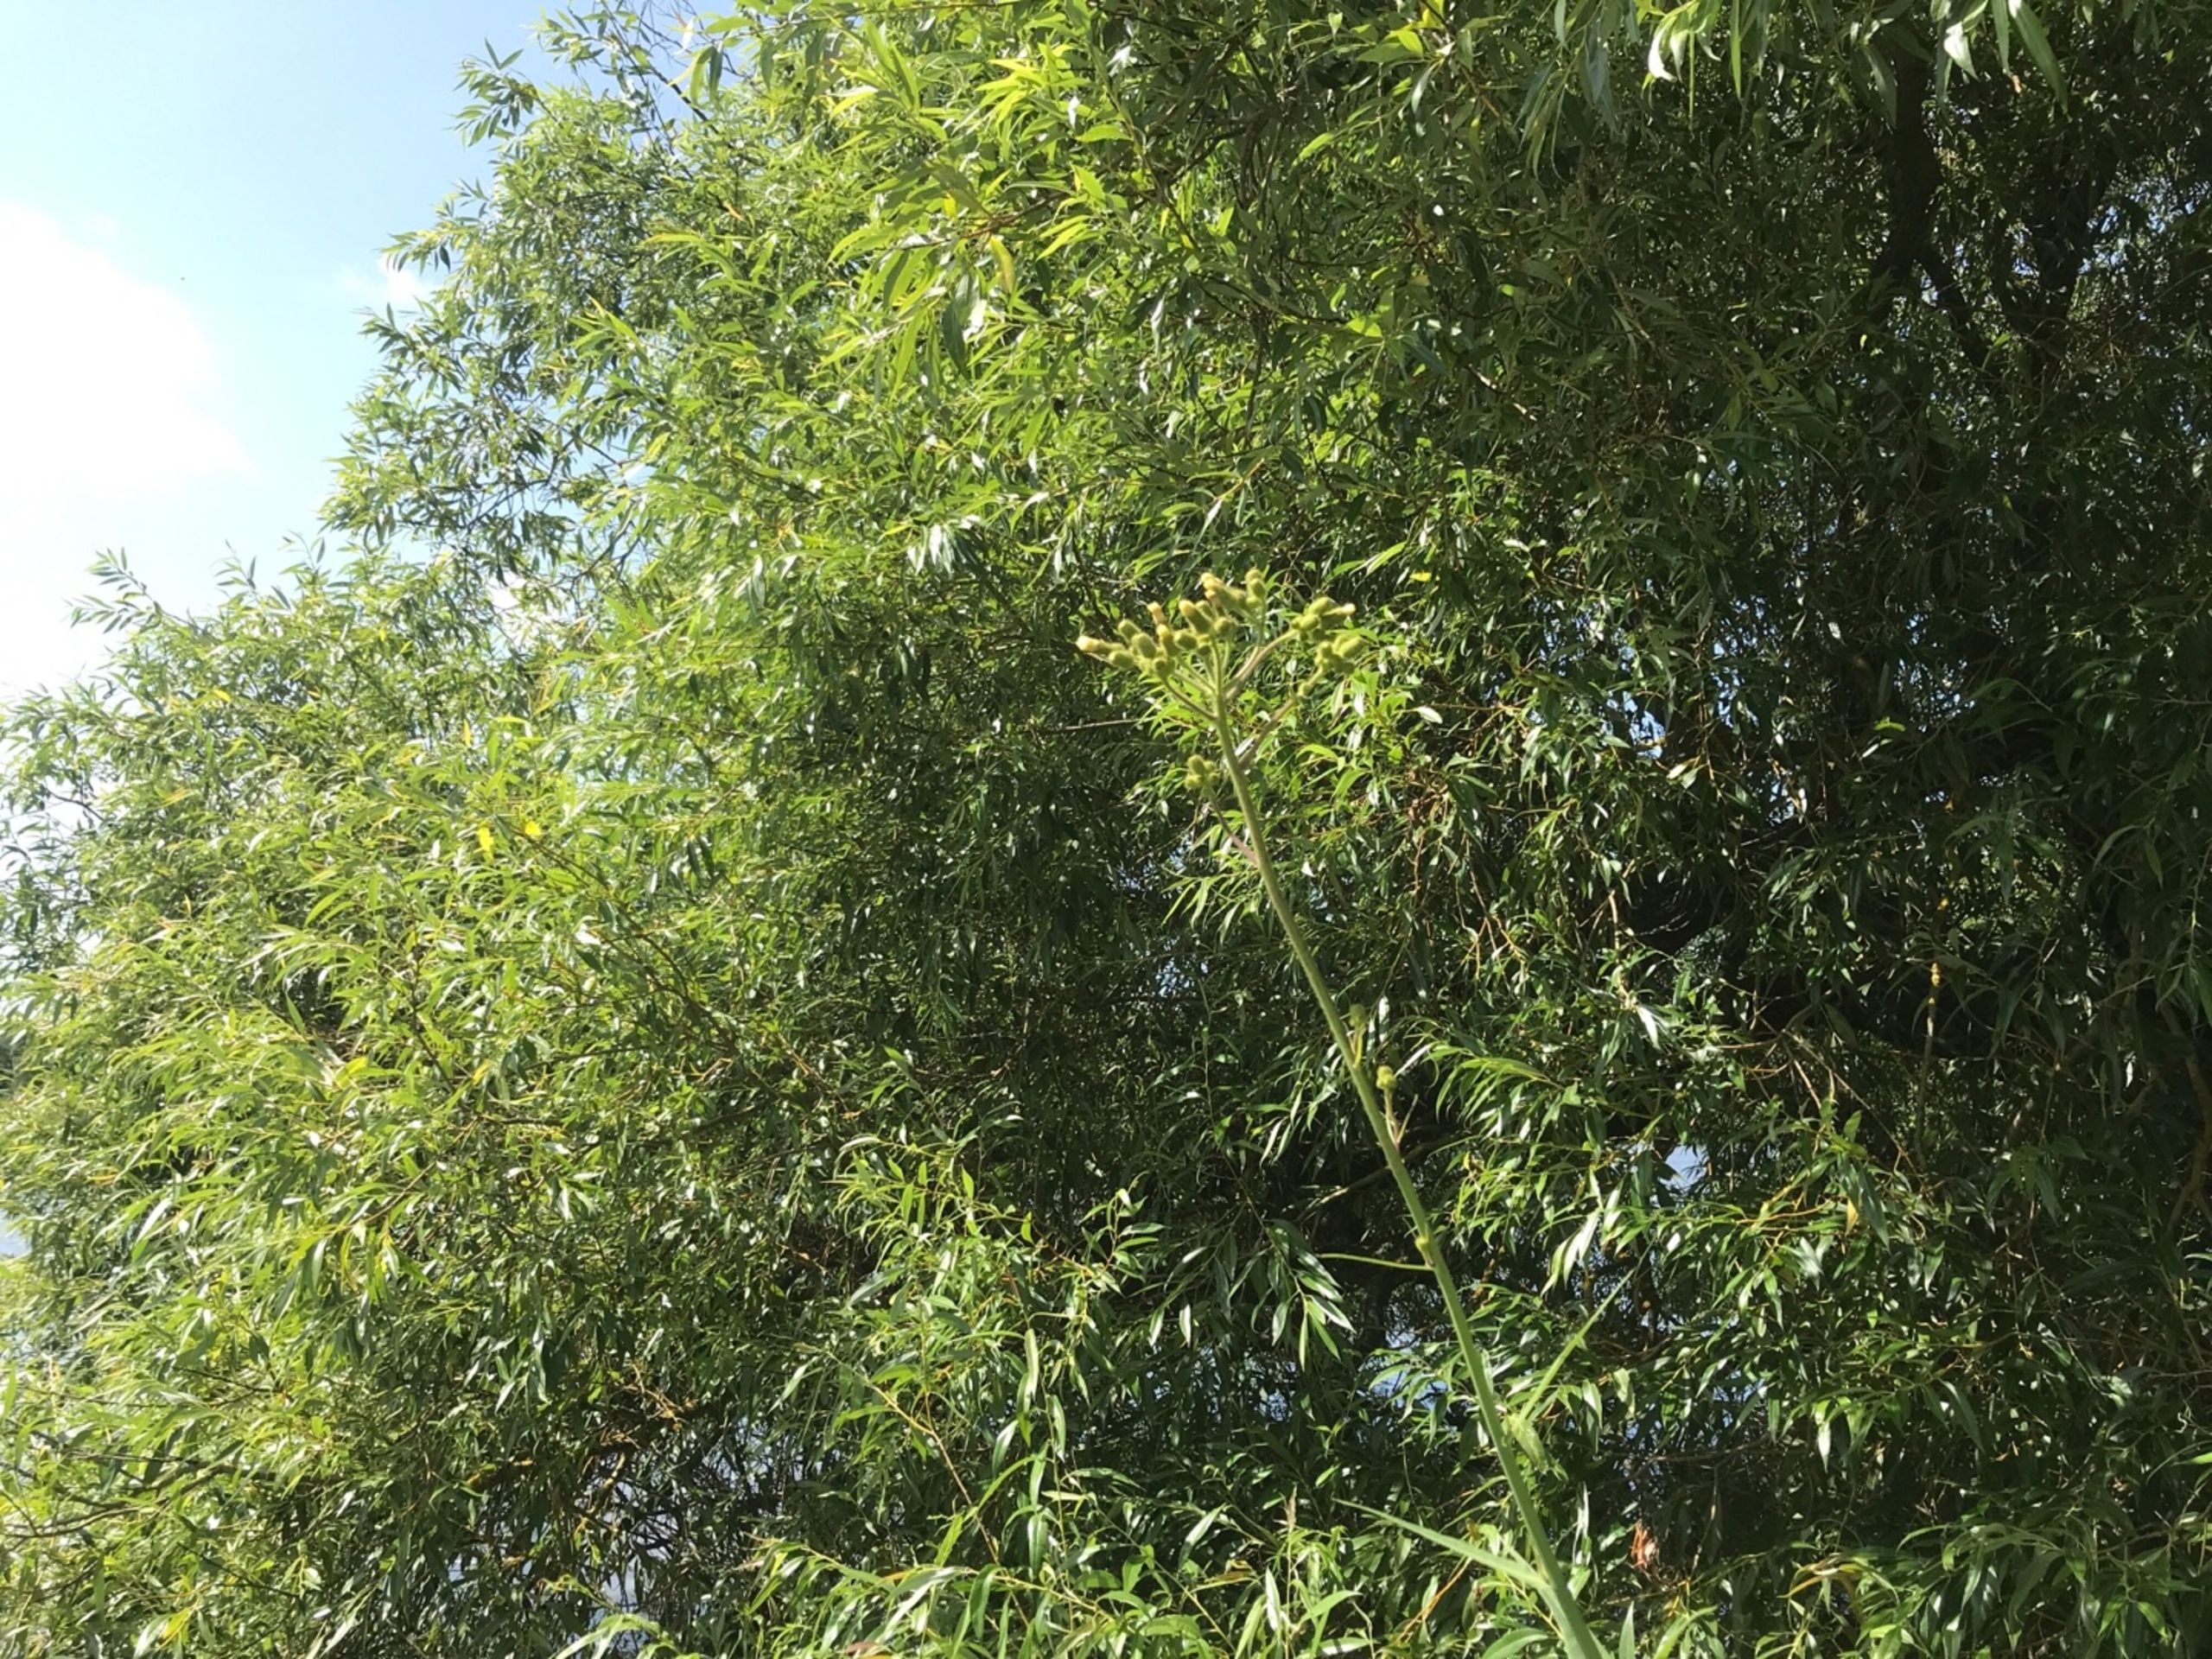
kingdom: Plantae
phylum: Tracheophyta
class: Magnoliopsida
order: Asterales
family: Asteraceae
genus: Sonchus
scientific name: Sonchus palustris
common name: Kær-svinemælk
